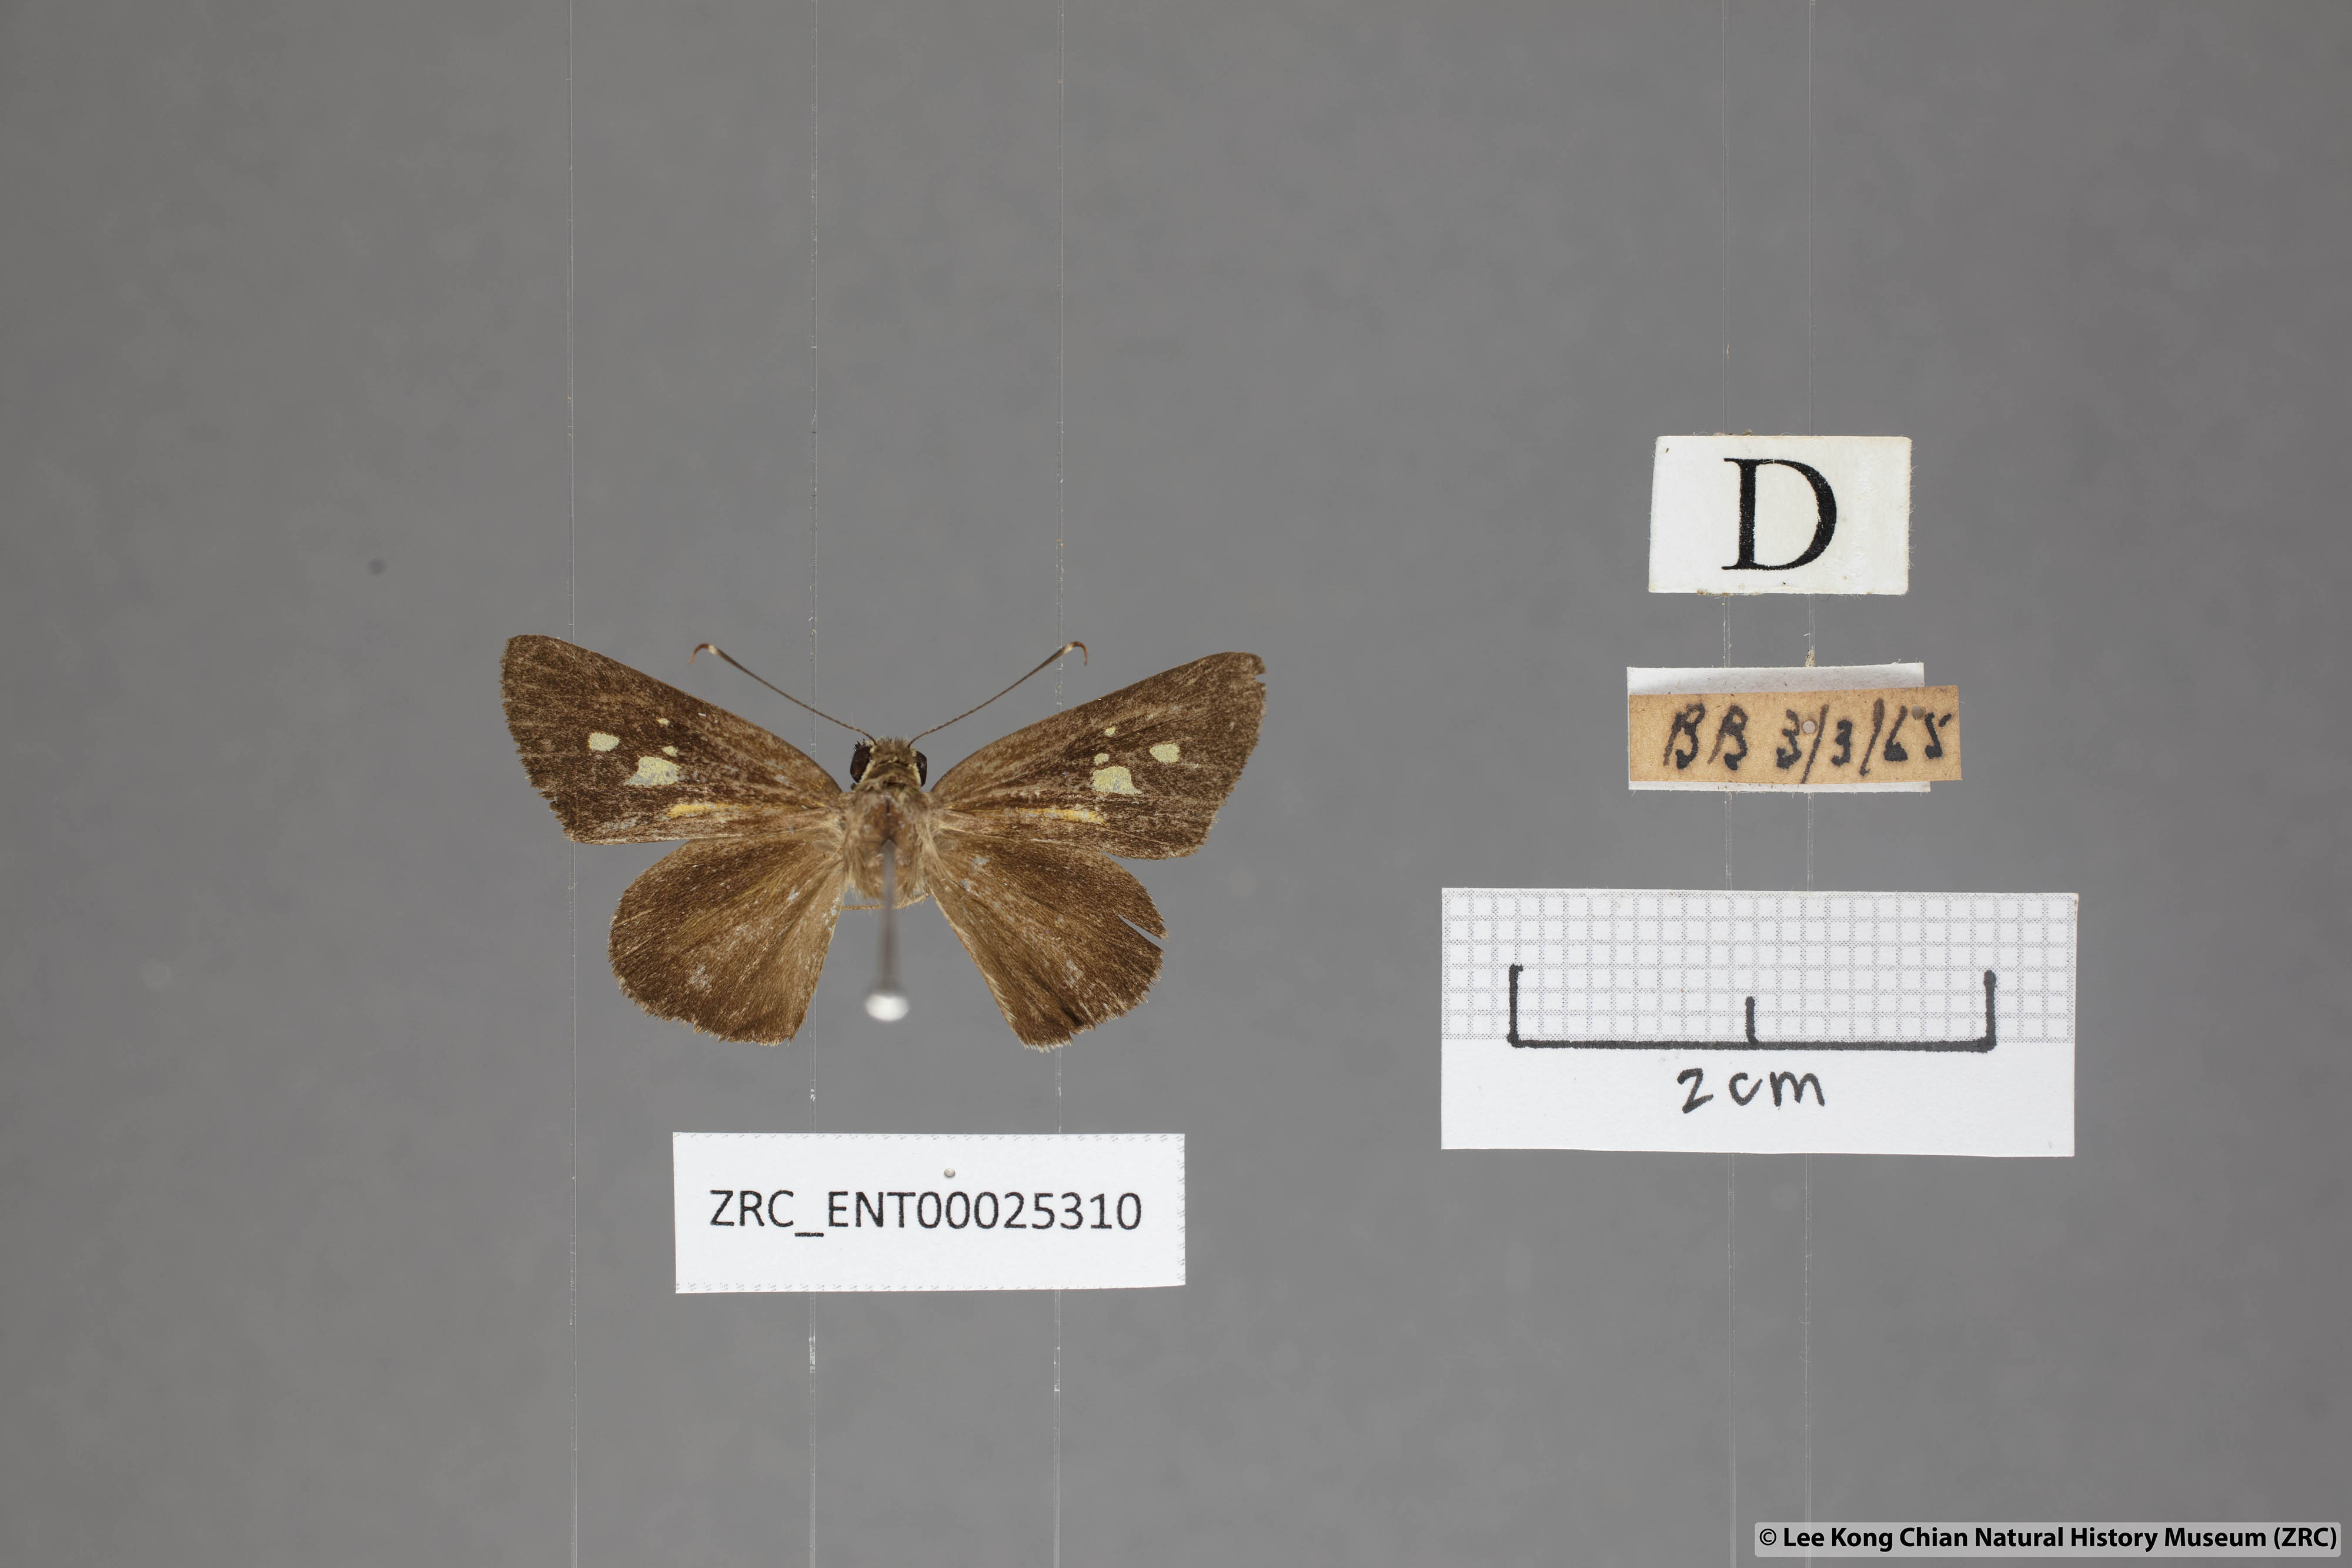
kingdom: Animalia
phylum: Arthropoda
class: Insecta
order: Lepidoptera
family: Hesperiidae
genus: Salanoemia
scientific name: Salanoemia sala
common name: Maculate lancer
